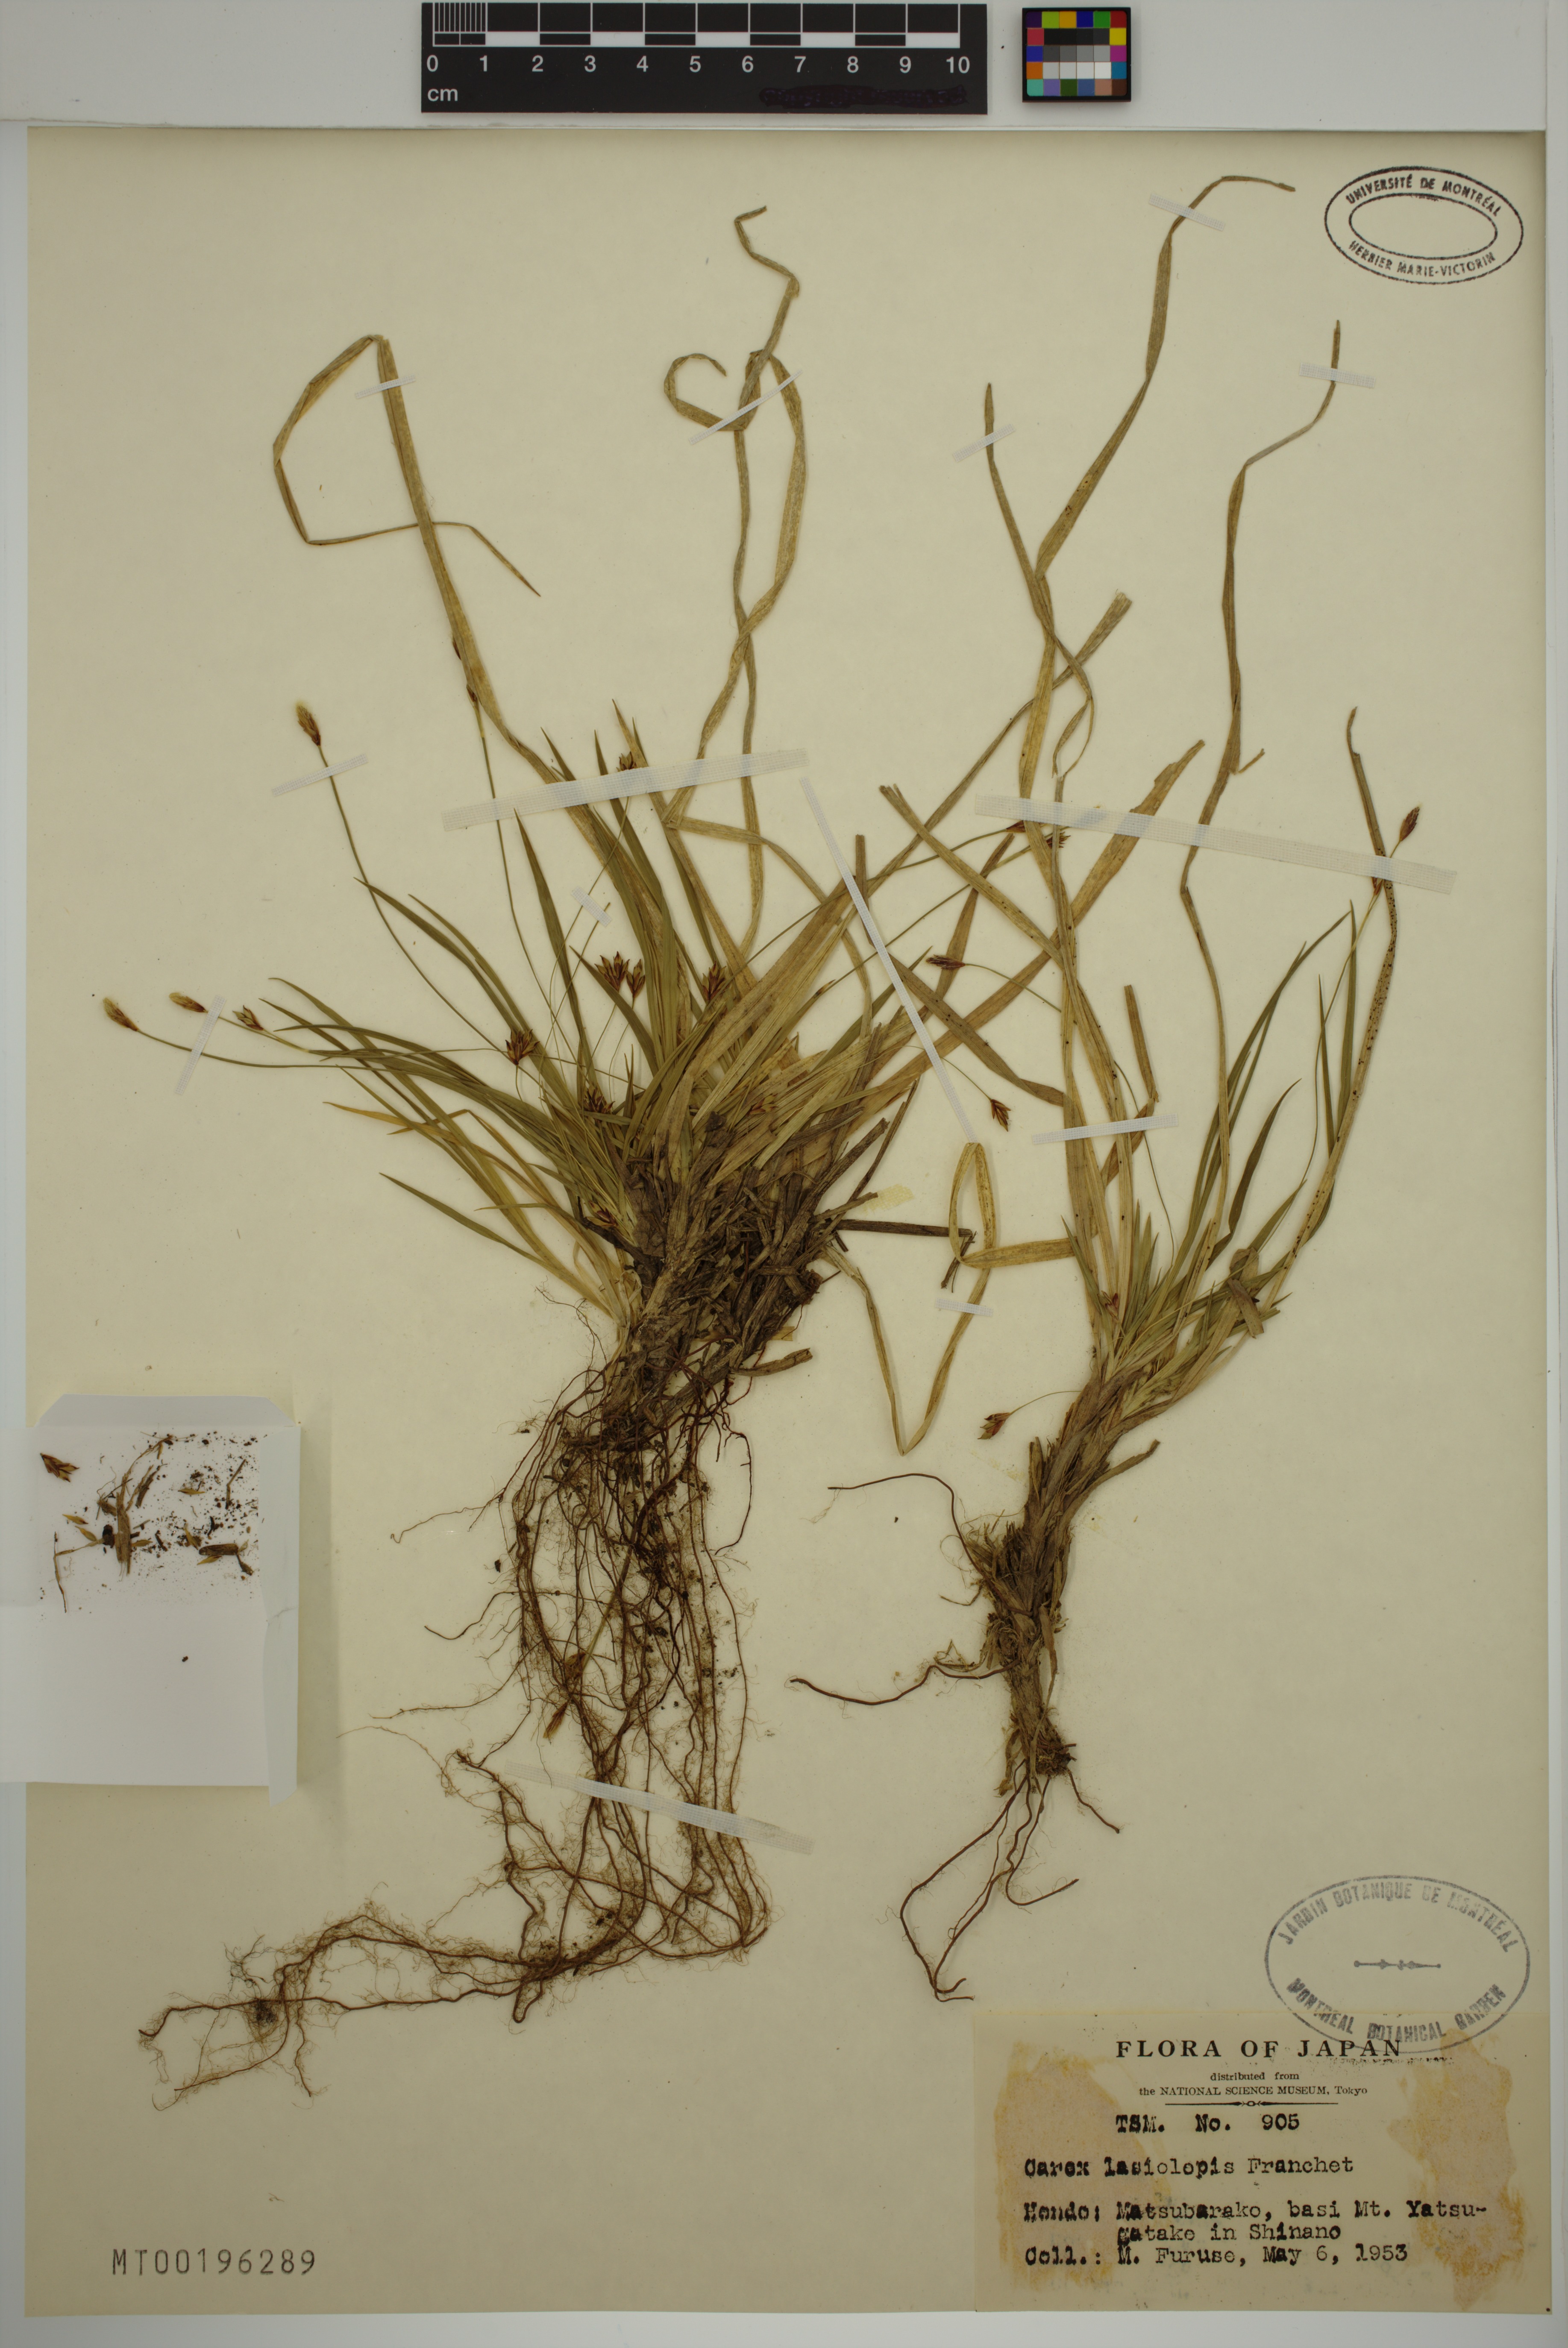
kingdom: Plantae
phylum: Tracheophyta
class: Liliopsida
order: Poales
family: Cyperaceae
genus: Carex
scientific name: Carex lasiolepis
